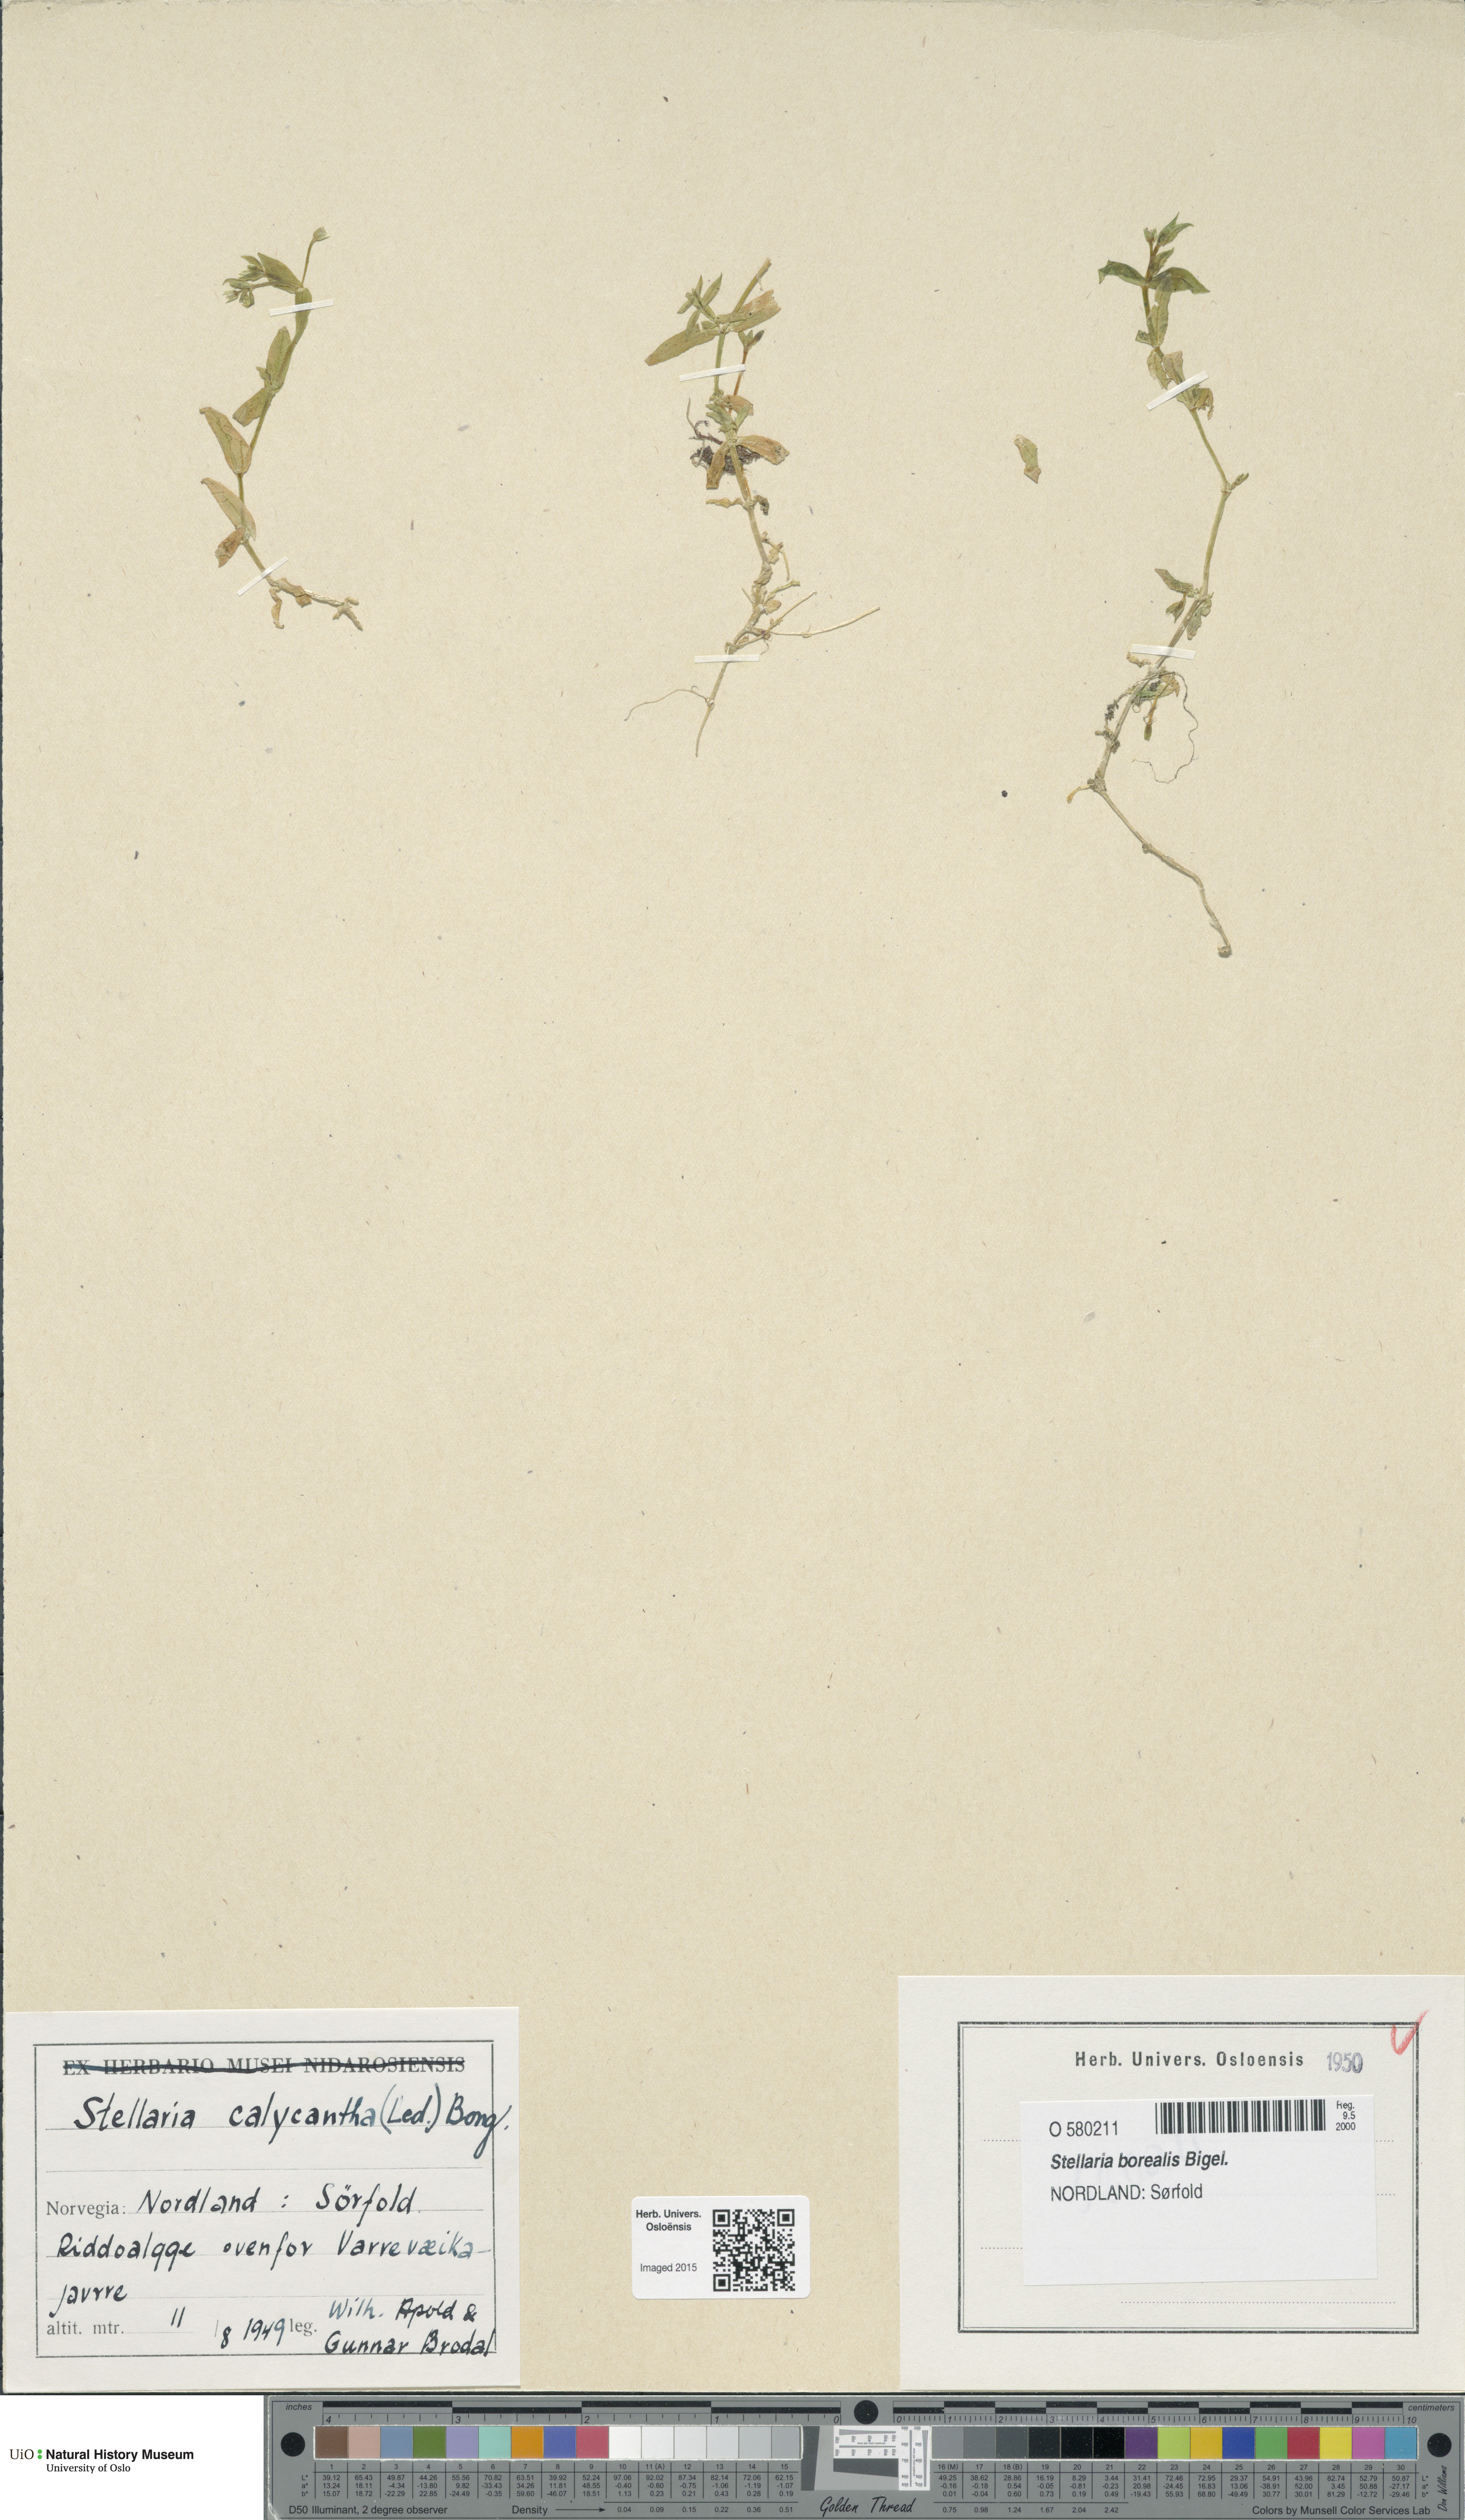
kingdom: Plantae
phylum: Tracheophyta
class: Magnoliopsida
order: Caryophyllales
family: Caryophyllaceae
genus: Stellaria
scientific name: Stellaria borealis
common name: Boreal starwort
